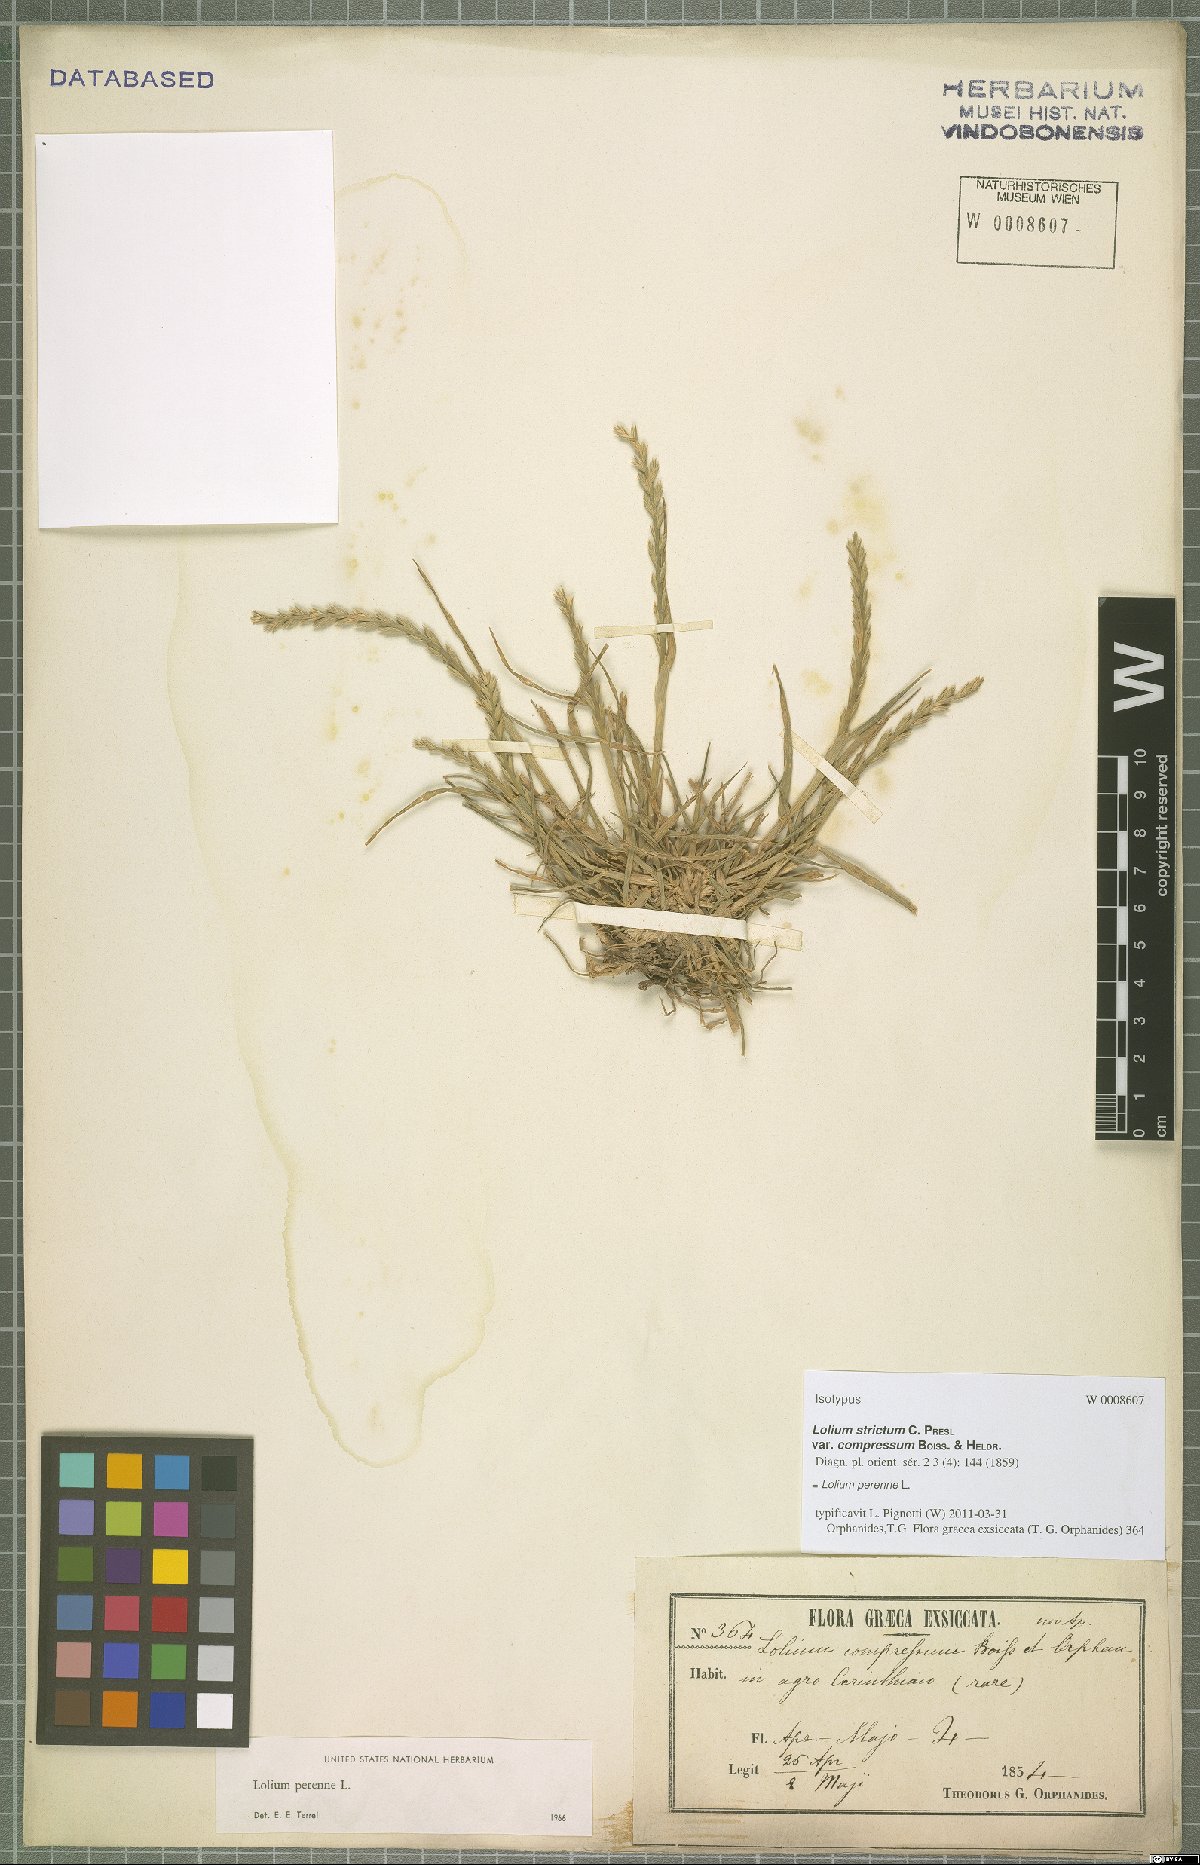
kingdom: Plantae
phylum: Tracheophyta
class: Liliopsida
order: Poales
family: Poaceae
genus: Lolium
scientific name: Lolium perenne
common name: Perennial ryegrass
